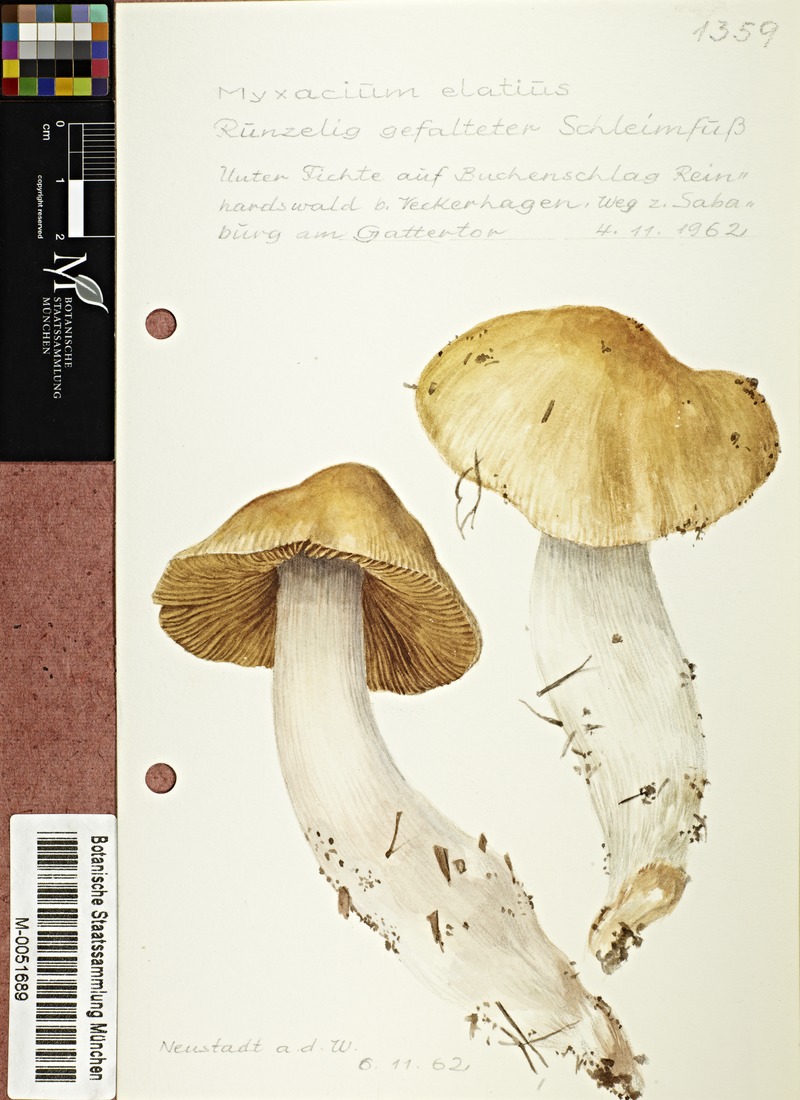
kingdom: Fungi
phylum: Basidiomycota
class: Agaricomycetes
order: Agaricales
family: Cortinariaceae
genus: Cortinarius
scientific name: Cortinarius elatior
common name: Tall webcap
